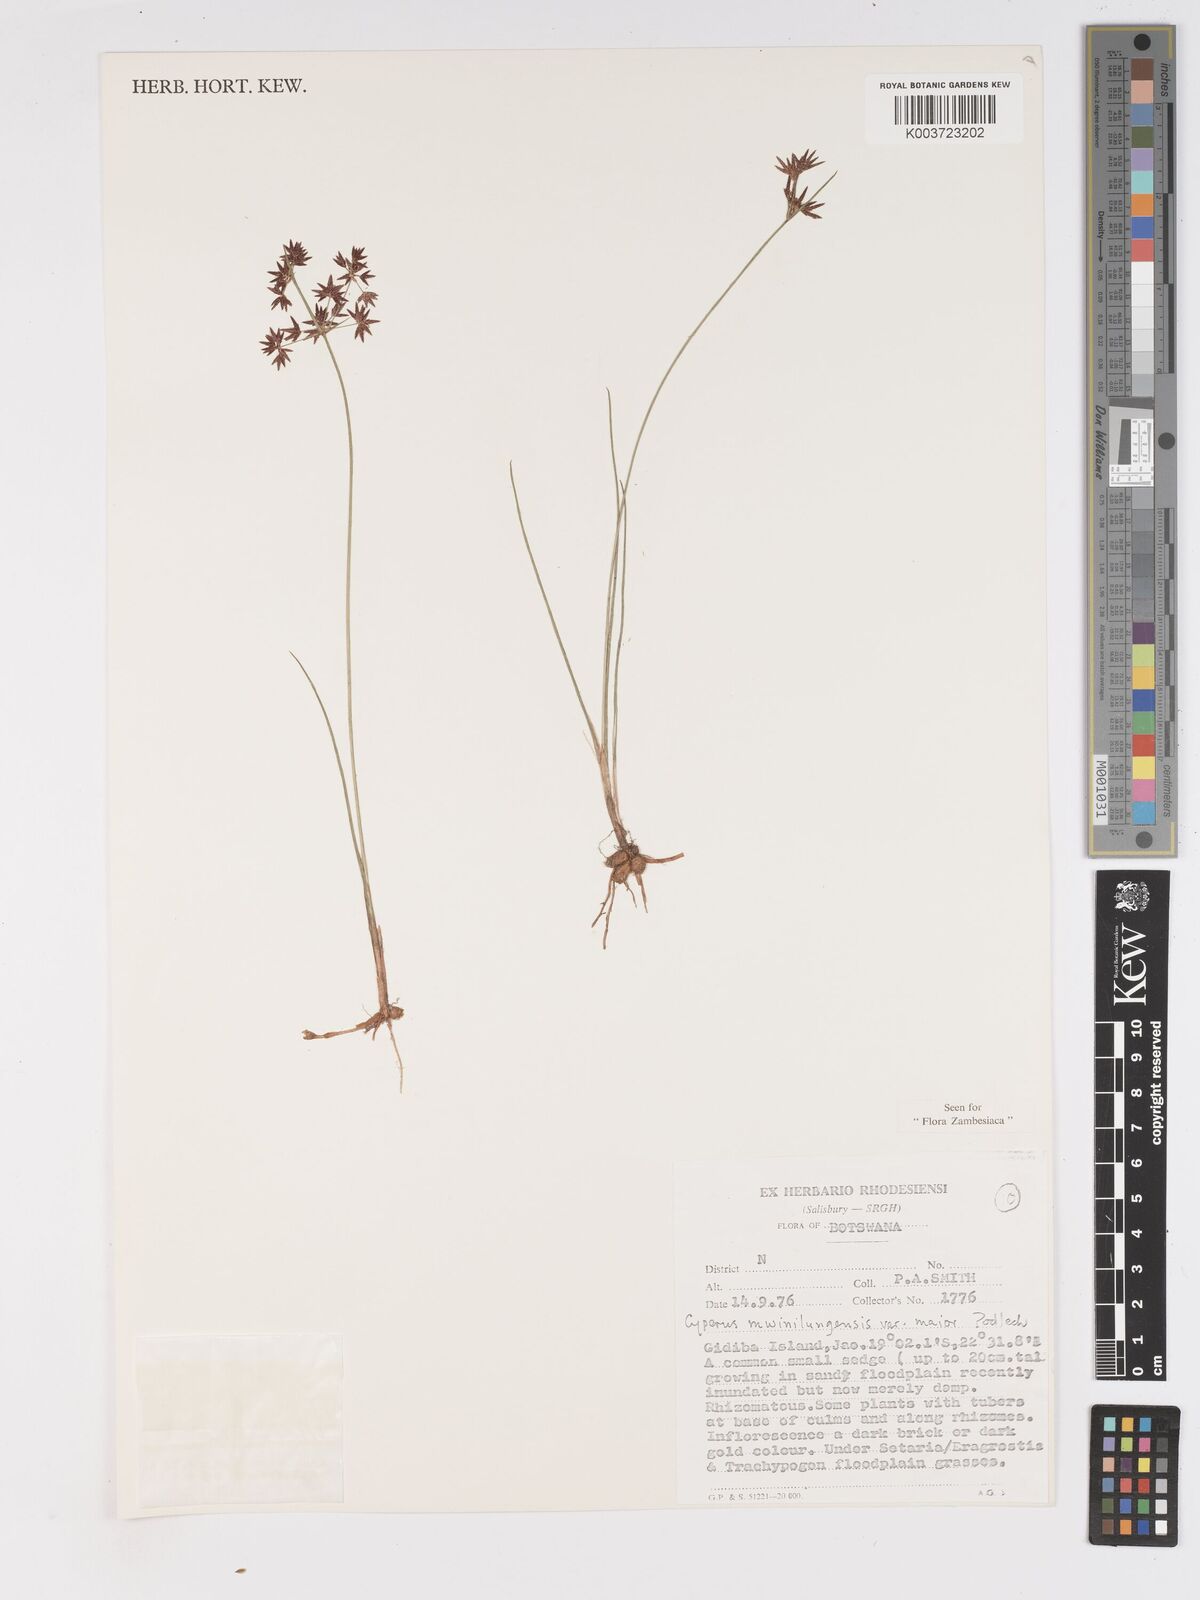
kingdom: Plantae
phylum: Tracheophyta
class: Liliopsida
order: Poales
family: Cyperaceae
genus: Cyperus
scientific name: Cyperus mwinilungensis
